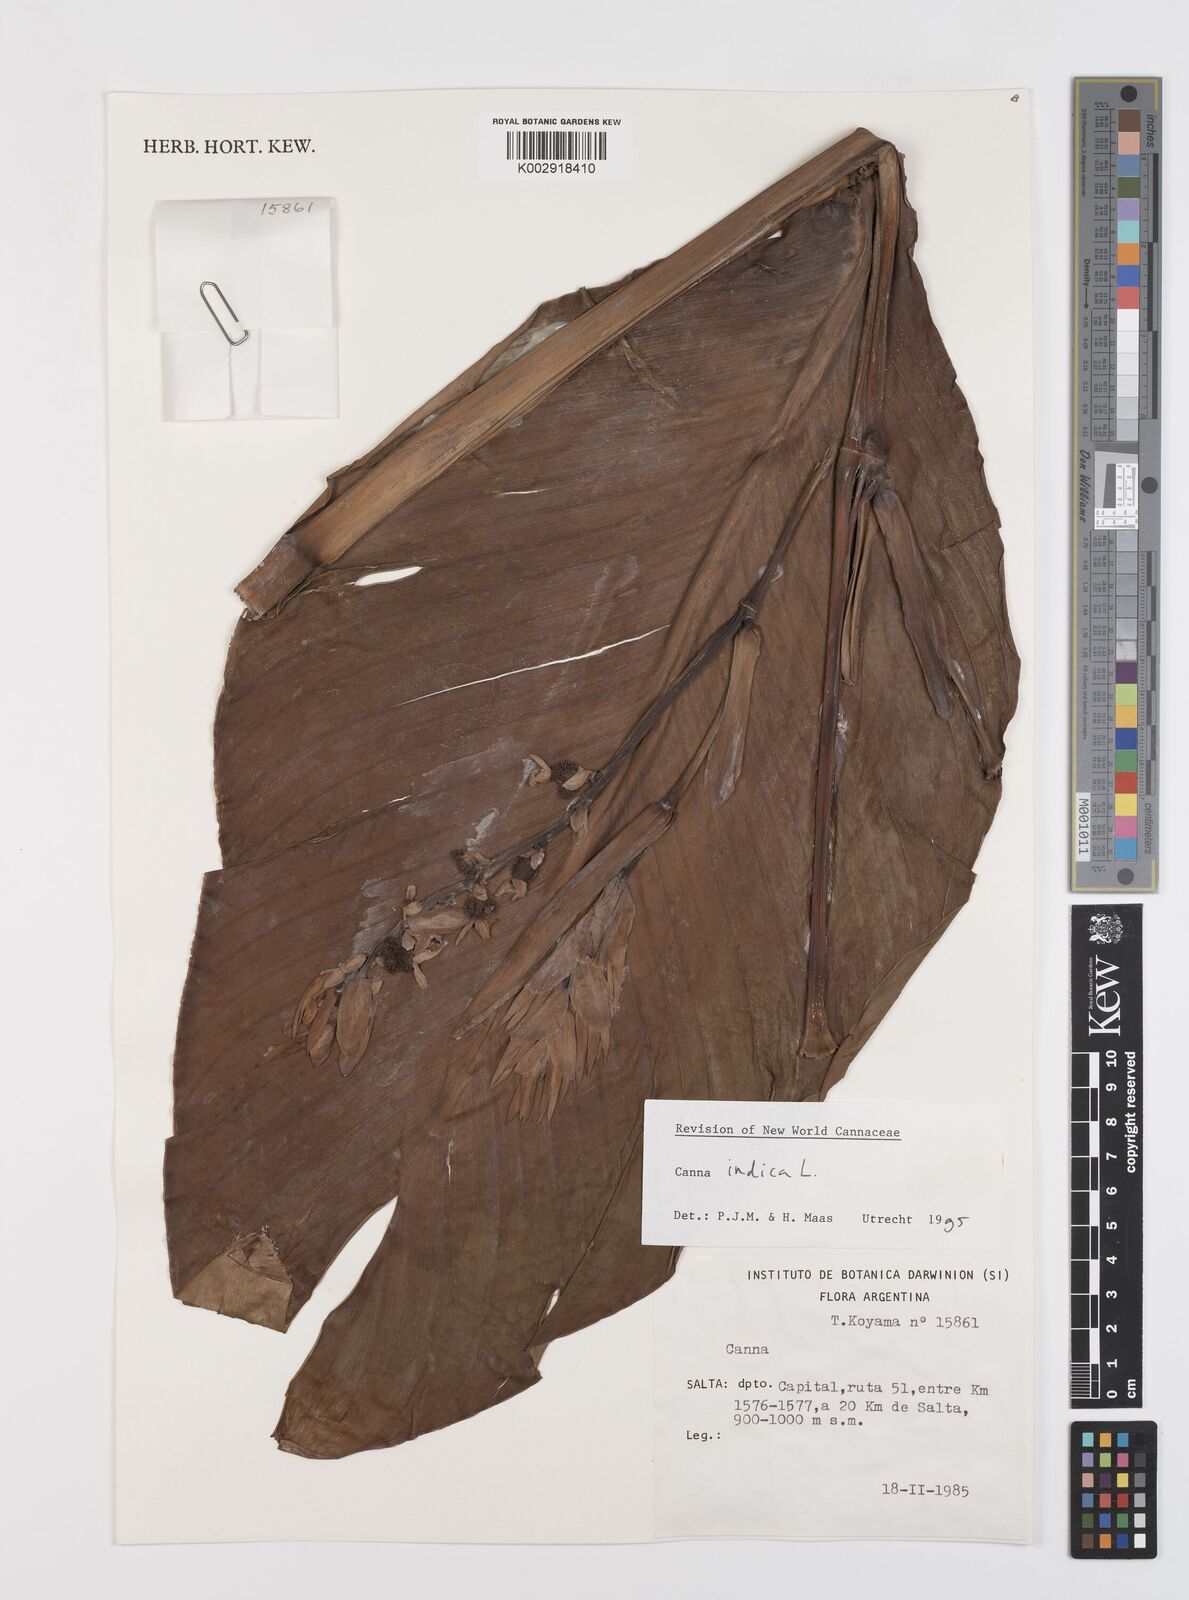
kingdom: Plantae
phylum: Tracheophyta
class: Liliopsida
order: Zingiberales
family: Cannaceae
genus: Canna
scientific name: Canna indica
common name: Indian shot
